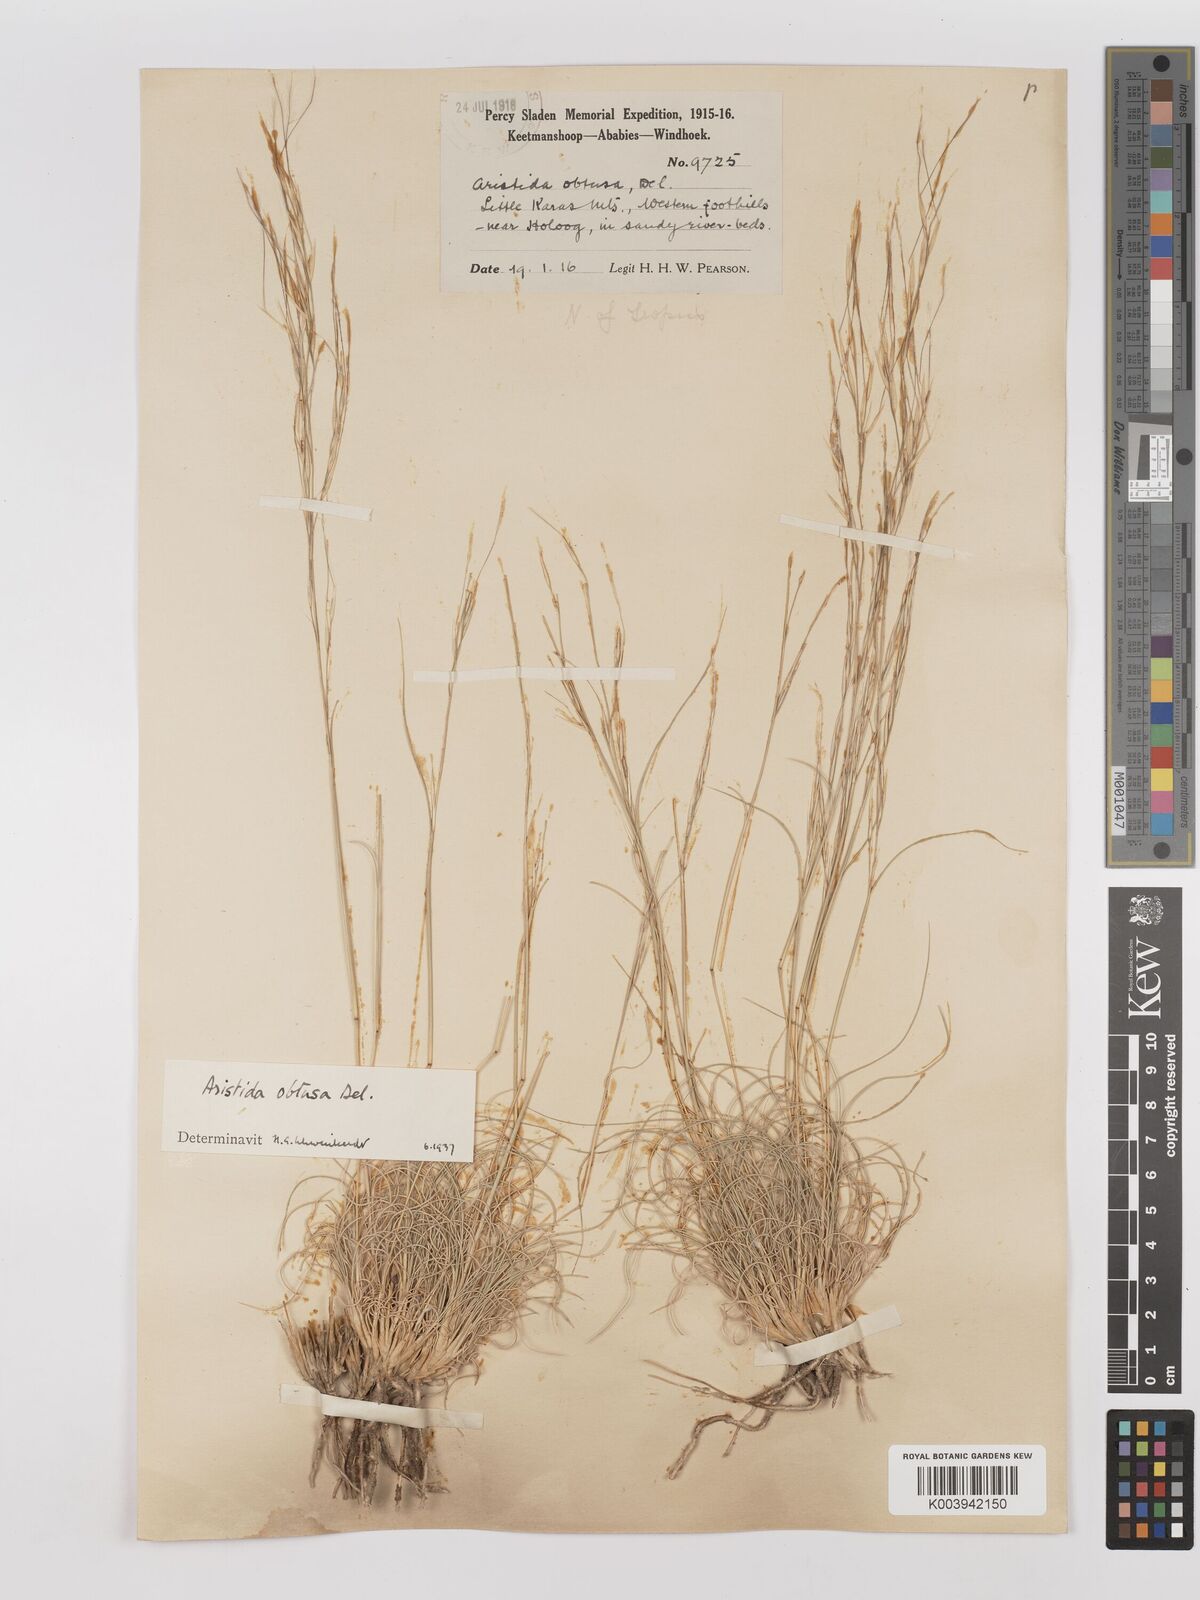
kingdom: Plantae
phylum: Tracheophyta
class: Liliopsida
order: Poales
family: Poaceae
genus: Stipagrostis
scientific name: Stipagrostis obtusa
